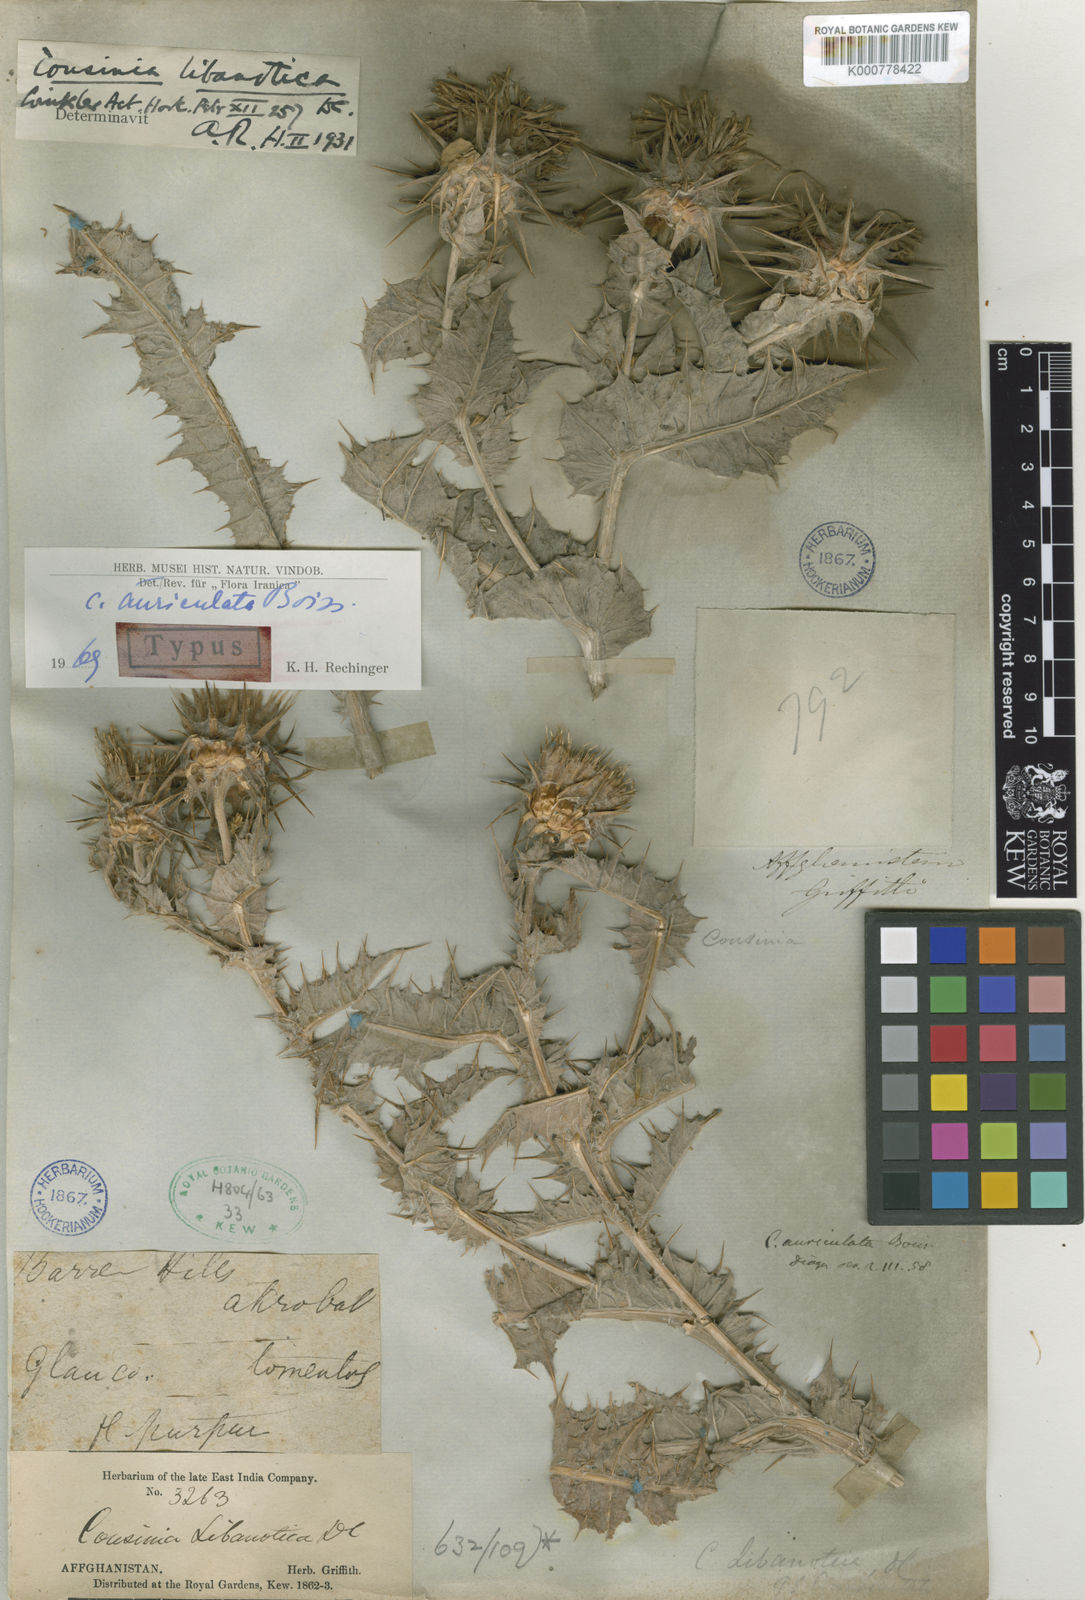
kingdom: Plantae
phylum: Tracheophyta
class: Magnoliopsida
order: Asterales
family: Asteraceae
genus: Cousinia
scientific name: Cousinia auriculata
